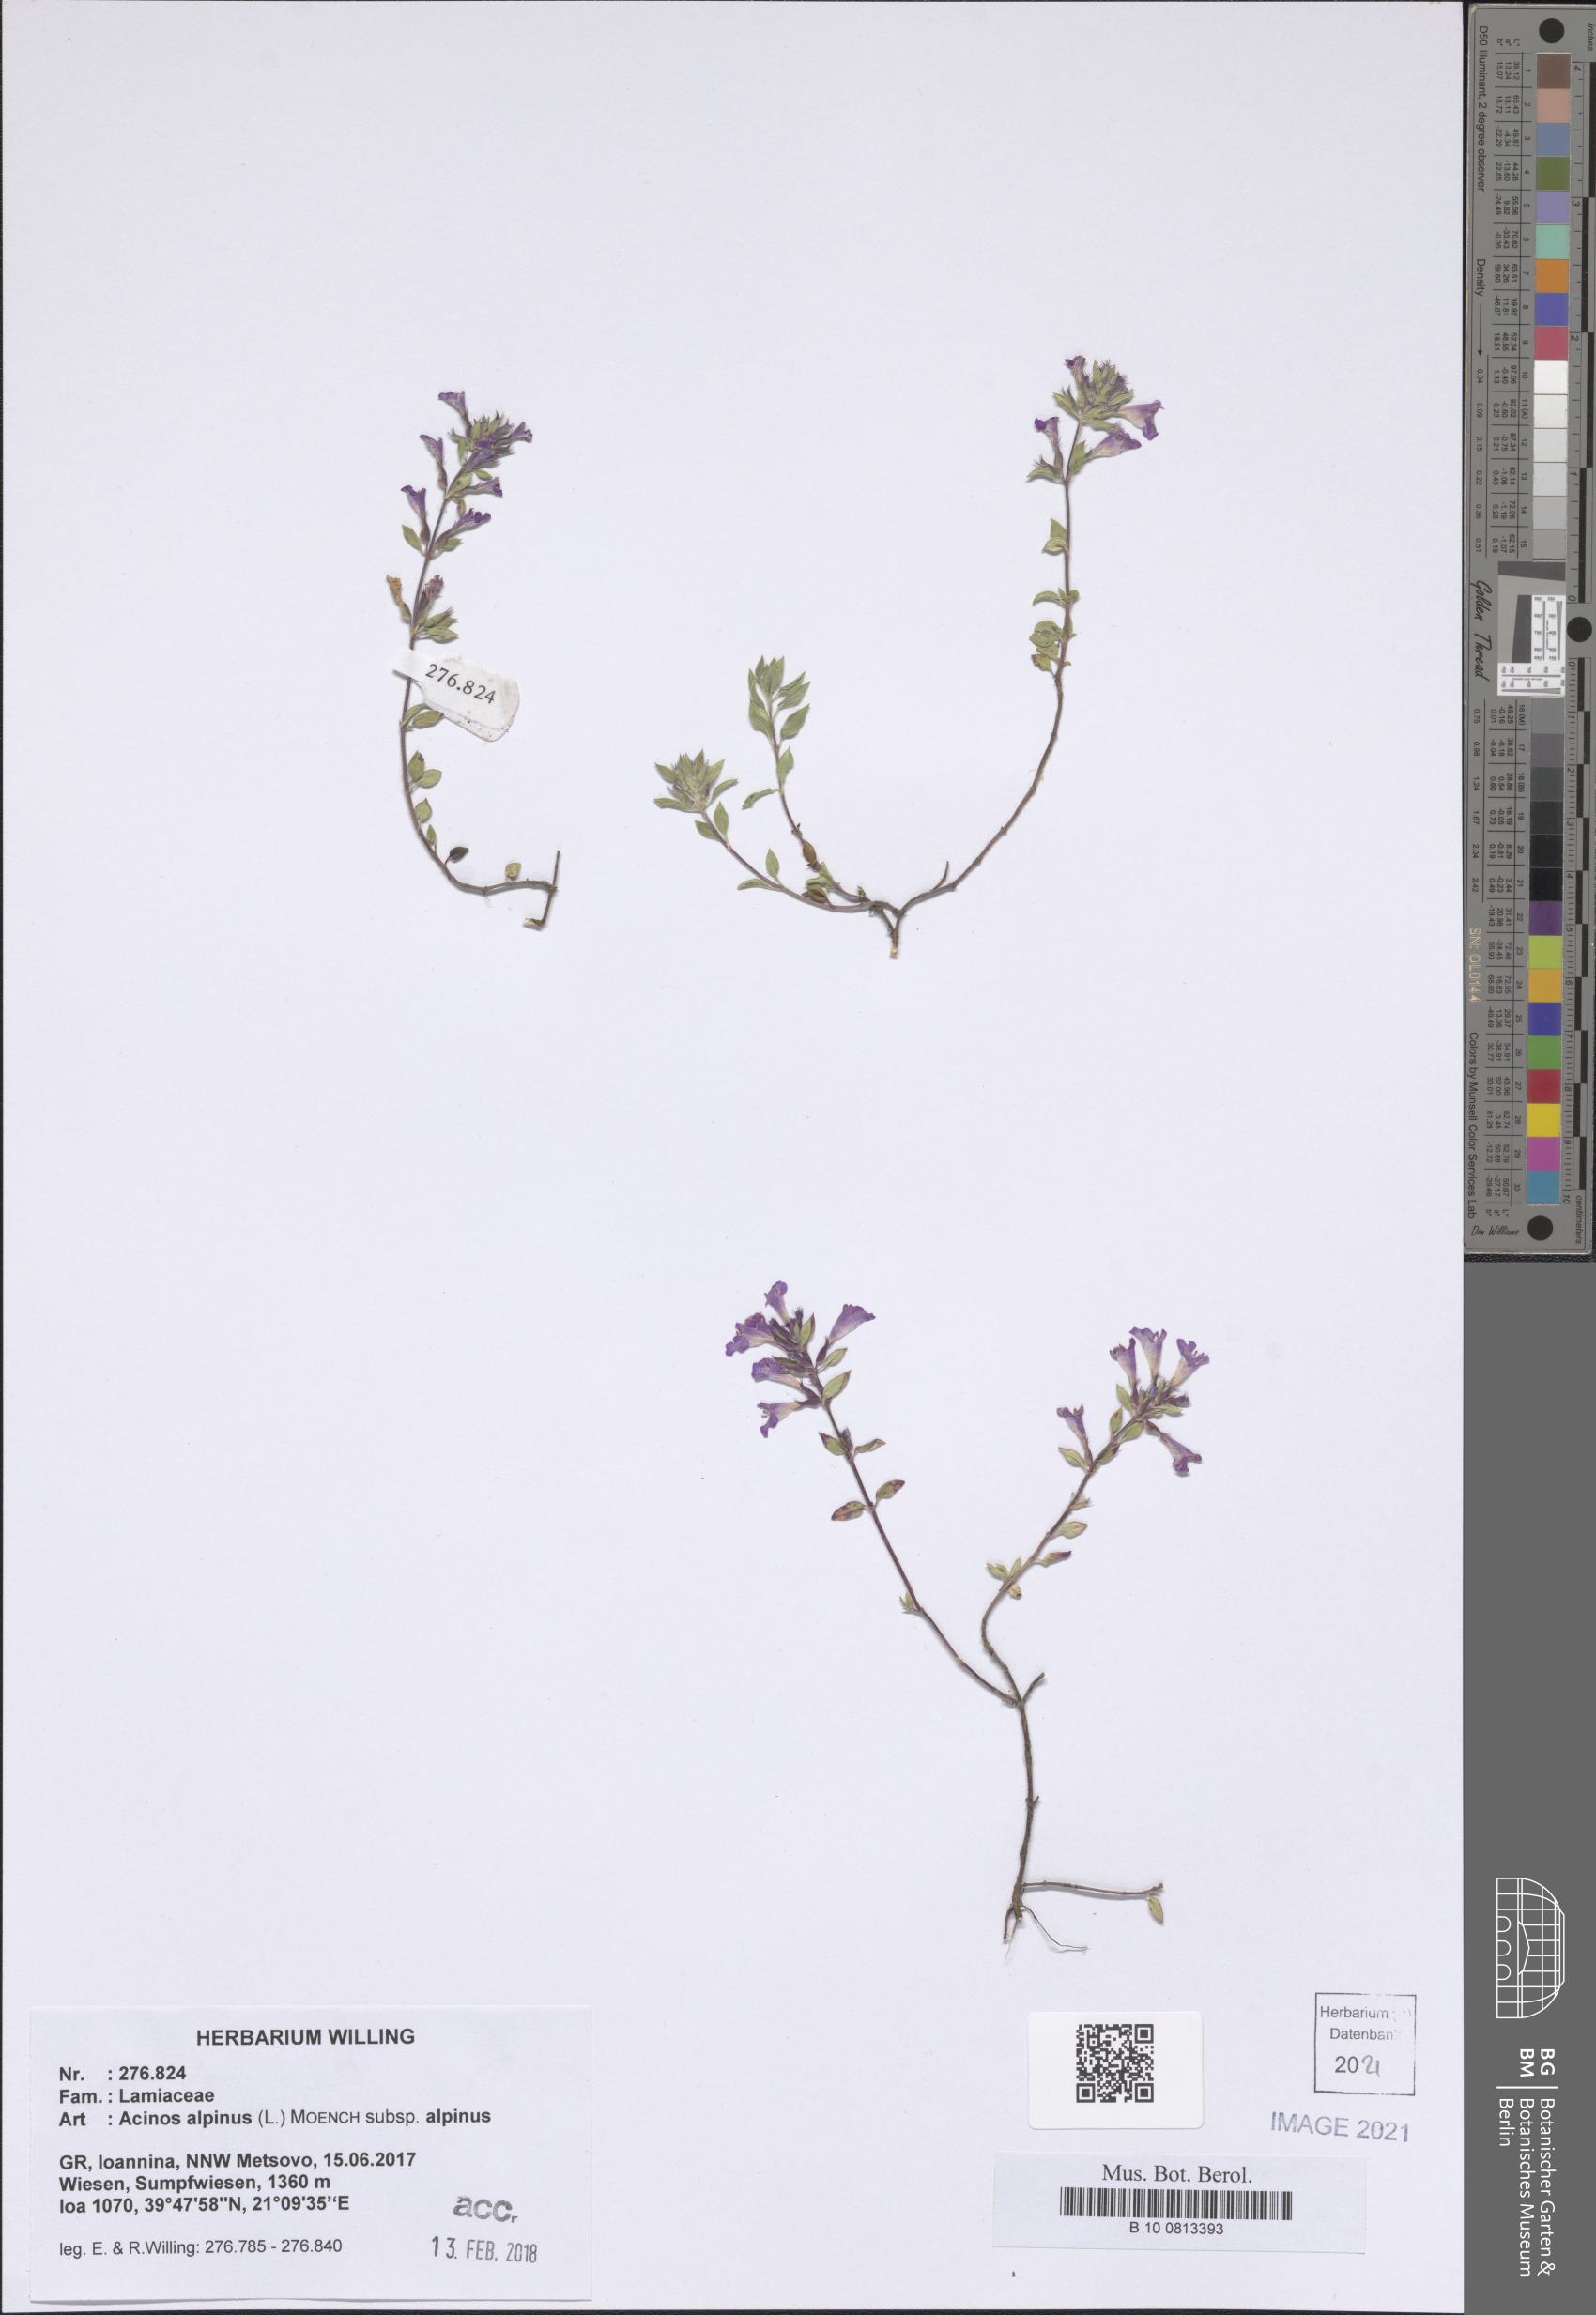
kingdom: Plantae
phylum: Tracheophyta
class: Magnoliopsida
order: Lamiales
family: Lamiaceae
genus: Clinopodium
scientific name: Clinopodium alpinum
